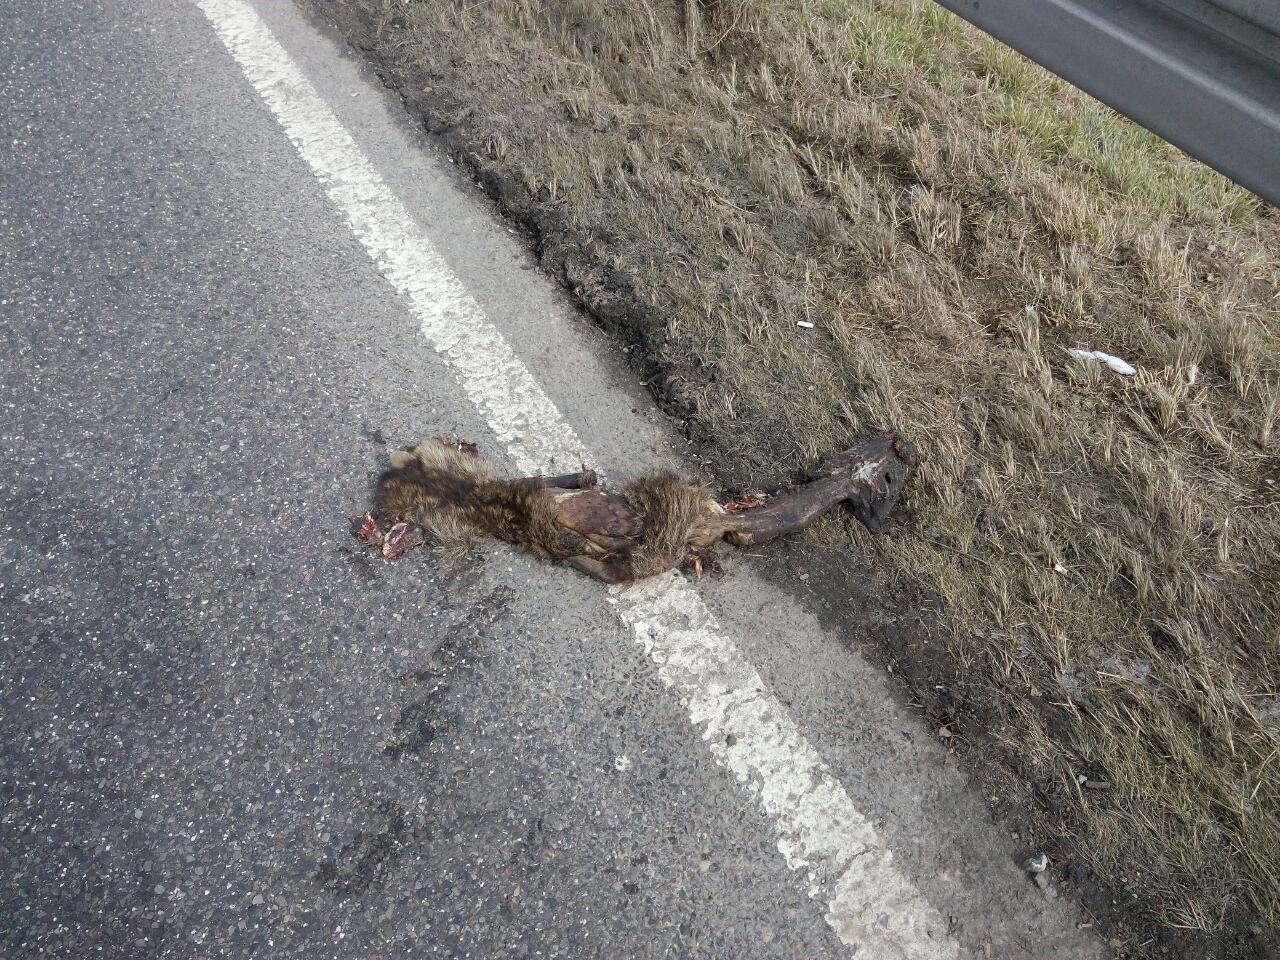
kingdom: Animalia
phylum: Chordata
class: Mammalia
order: Carnivora
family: Canidae
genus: Nyctereutes
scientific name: Nyctereutes procyonoides
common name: Raccoon dog
